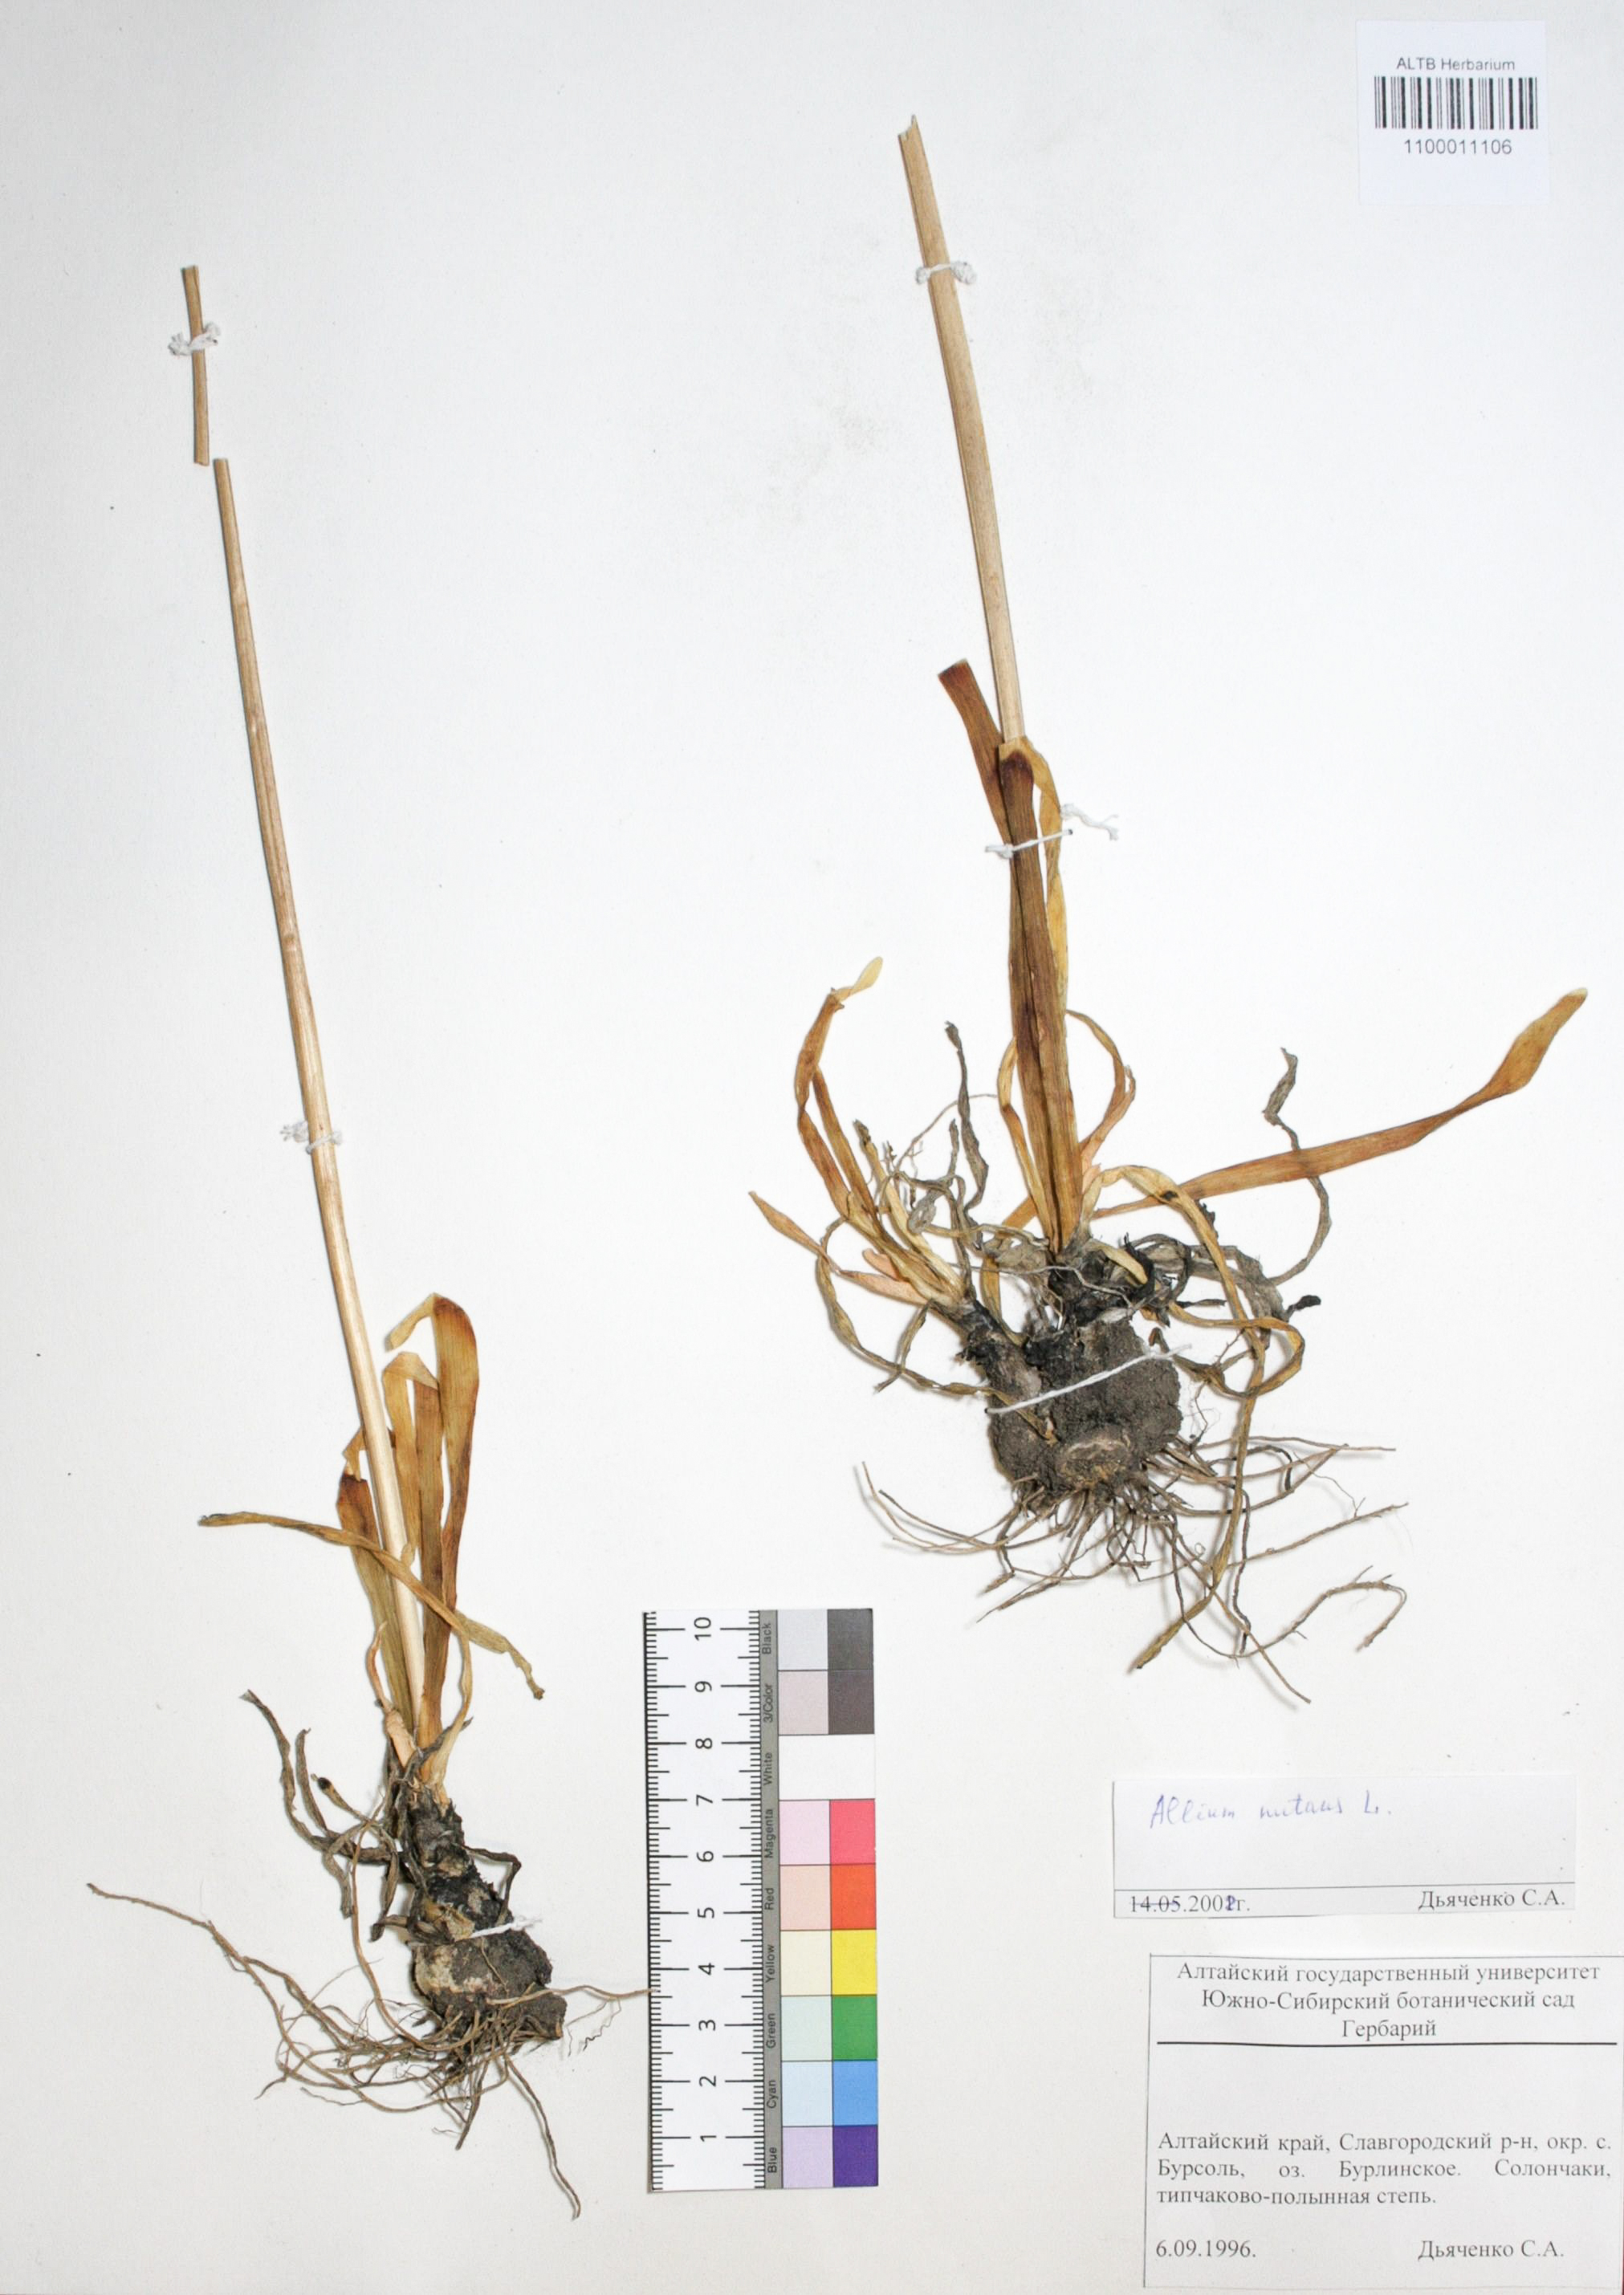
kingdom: Plantae
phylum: Tracheophyta
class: Liliopsida
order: Asparagales
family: Amaryllidaceae
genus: Allium
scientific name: Allium nutans
